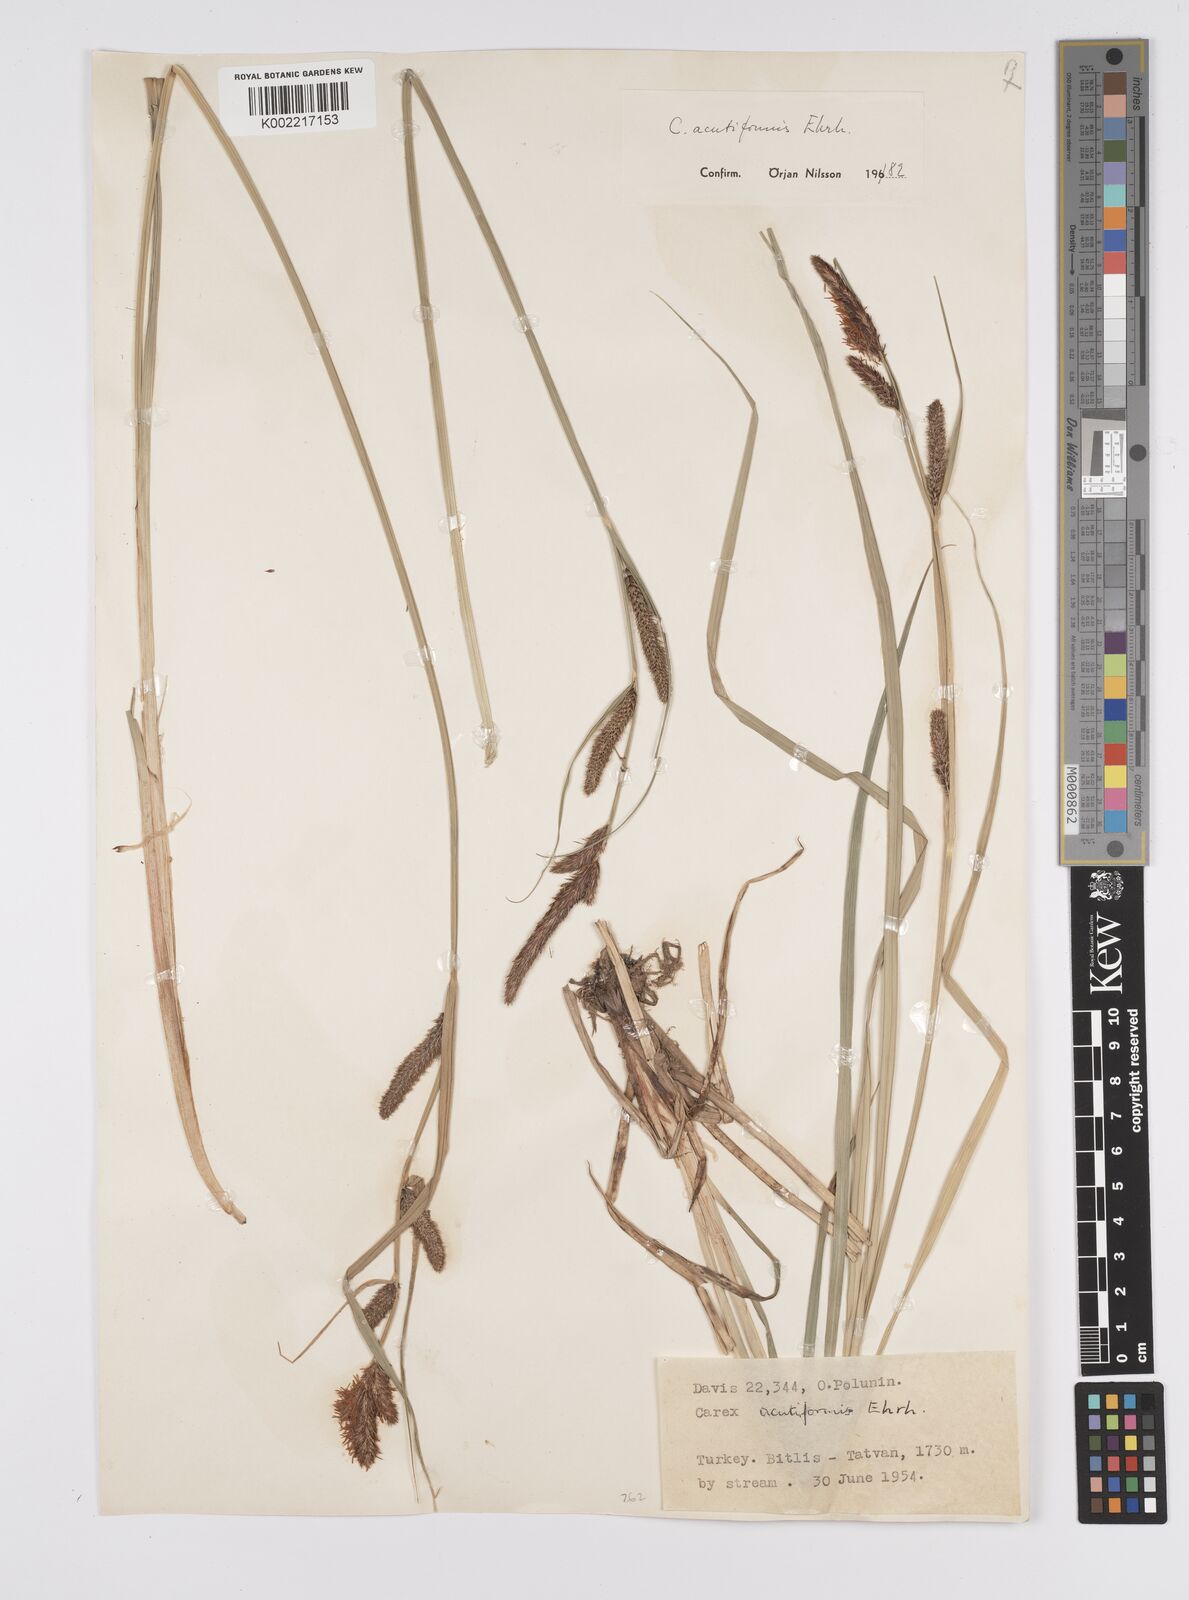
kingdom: Plantae
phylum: Tracheophyta
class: Liliopsida
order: Poales
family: Cyperaceae
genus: Carex
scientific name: Carex acutiformis
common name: Lesser pond-sedge
